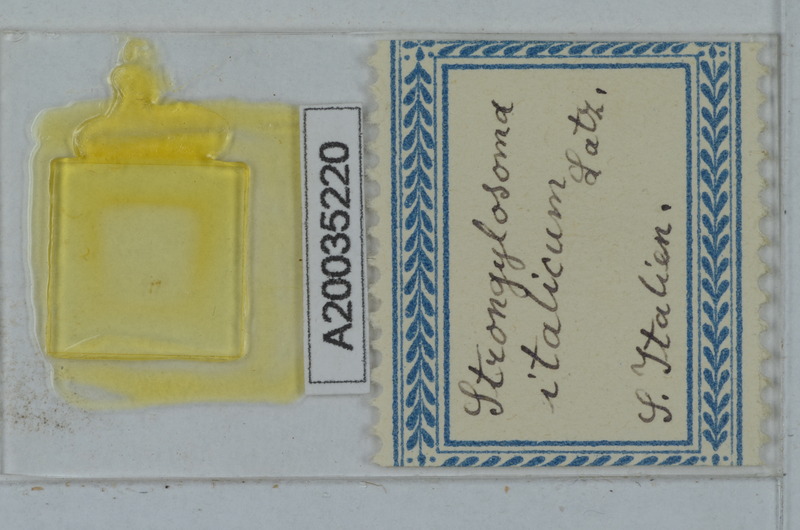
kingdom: Animalia
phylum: Arthropoda
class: Diplopoda
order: Polydesmida
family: Paradoxosomatidae
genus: Strongylosoma
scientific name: Strongylosoma italica
